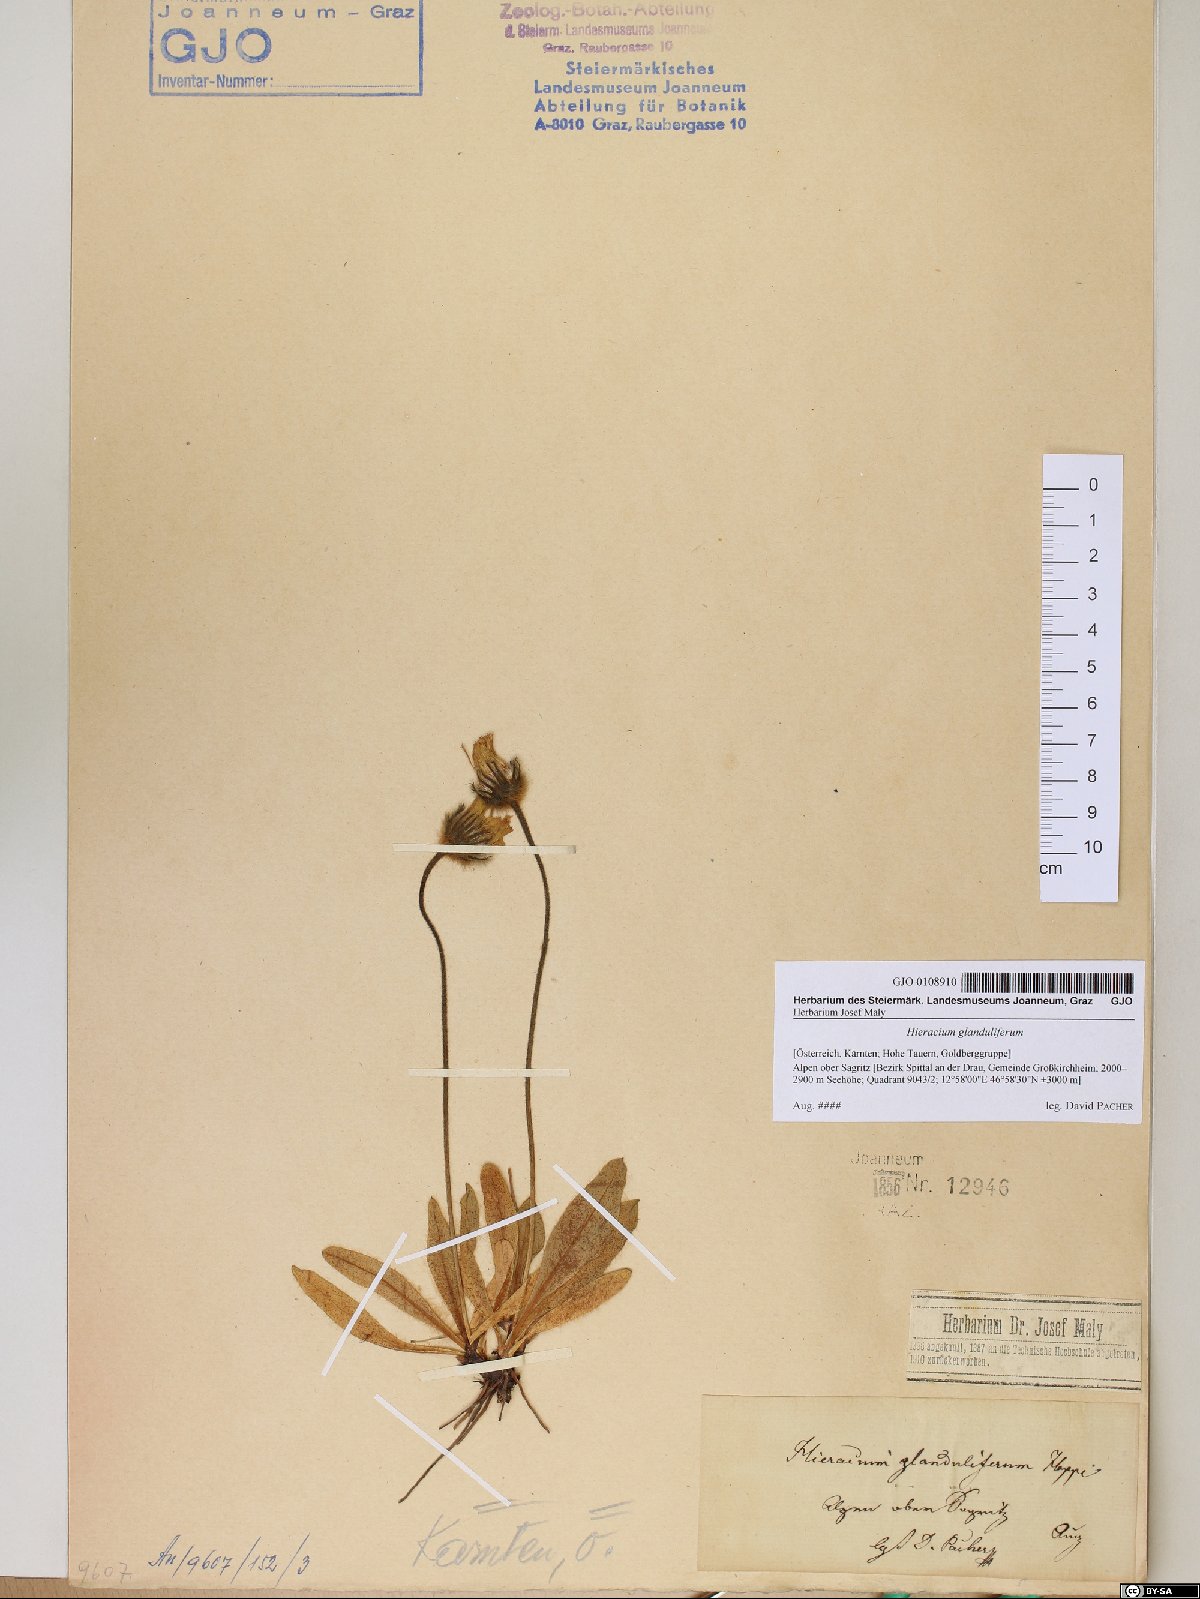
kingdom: Plantae
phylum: Tracheophyta
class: Magnoliopsida
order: Asterales
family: Asteraceae
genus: Hieracium
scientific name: Hieracium piliferum
